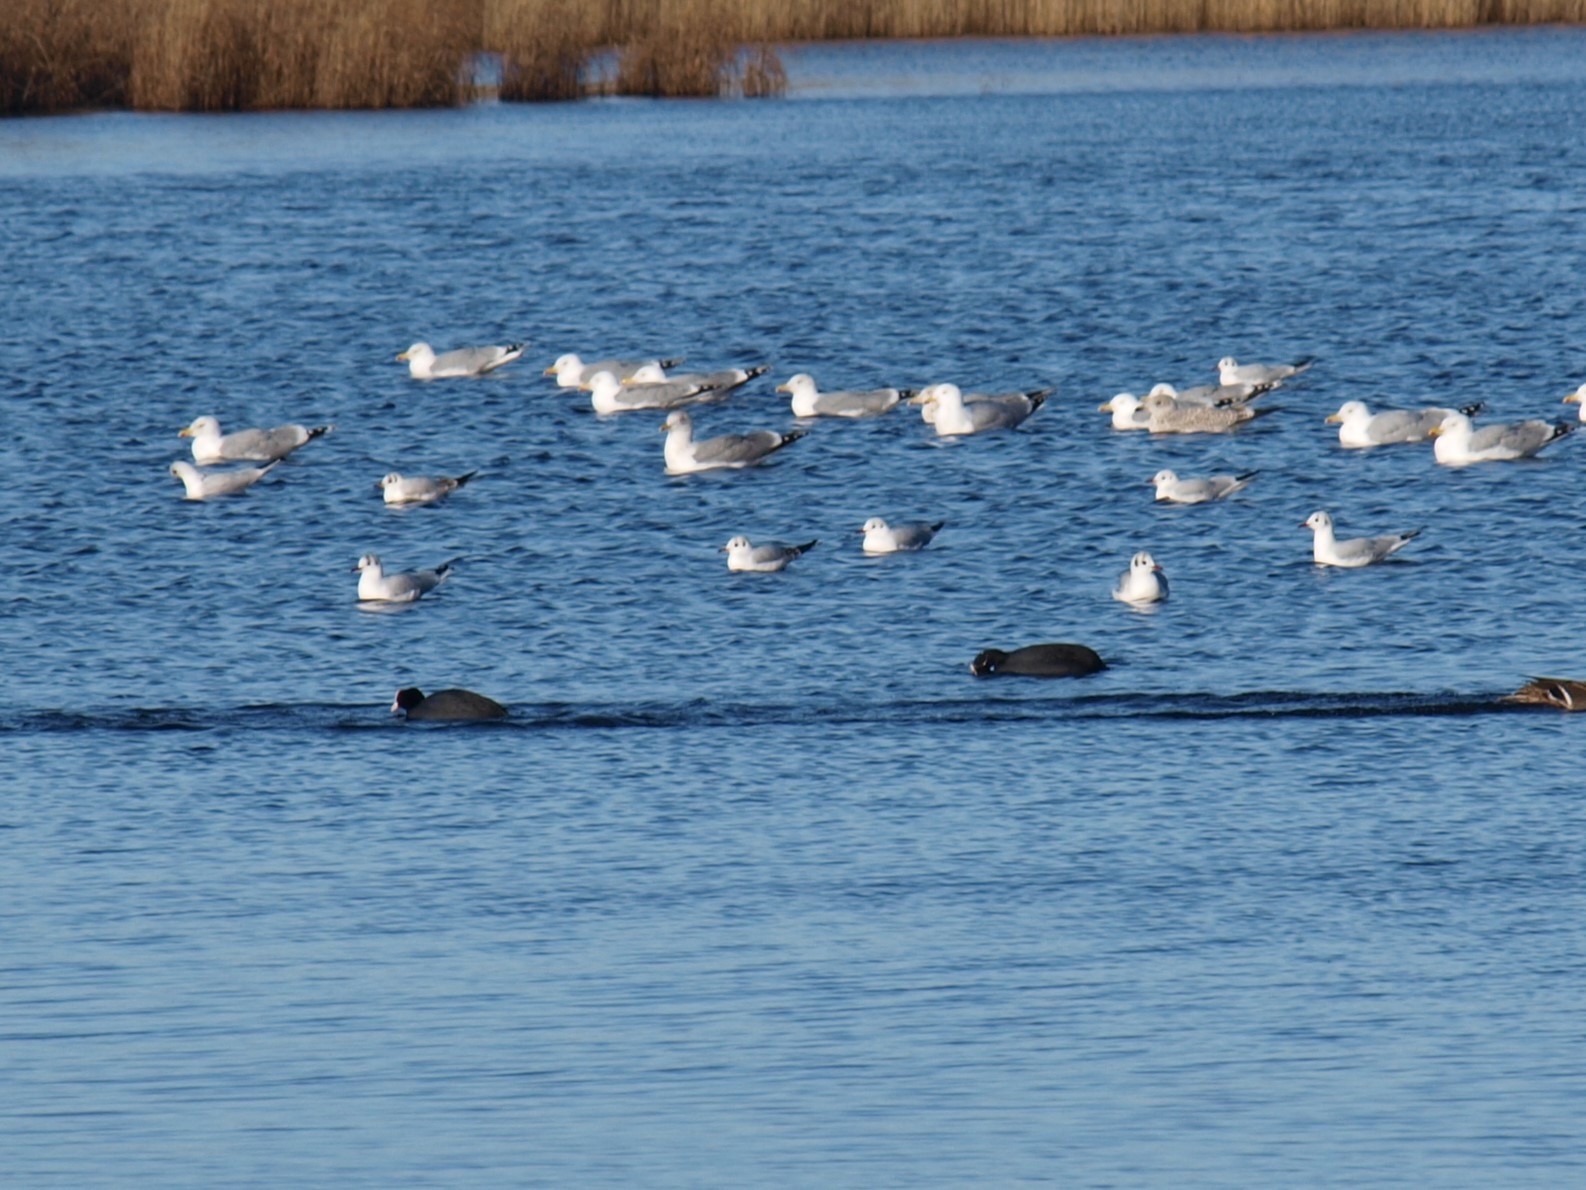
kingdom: Animalia
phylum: Chordata
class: Aves
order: Gruiformes
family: Rallidae
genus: Fulica
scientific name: Fulica atra
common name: Blishøne
